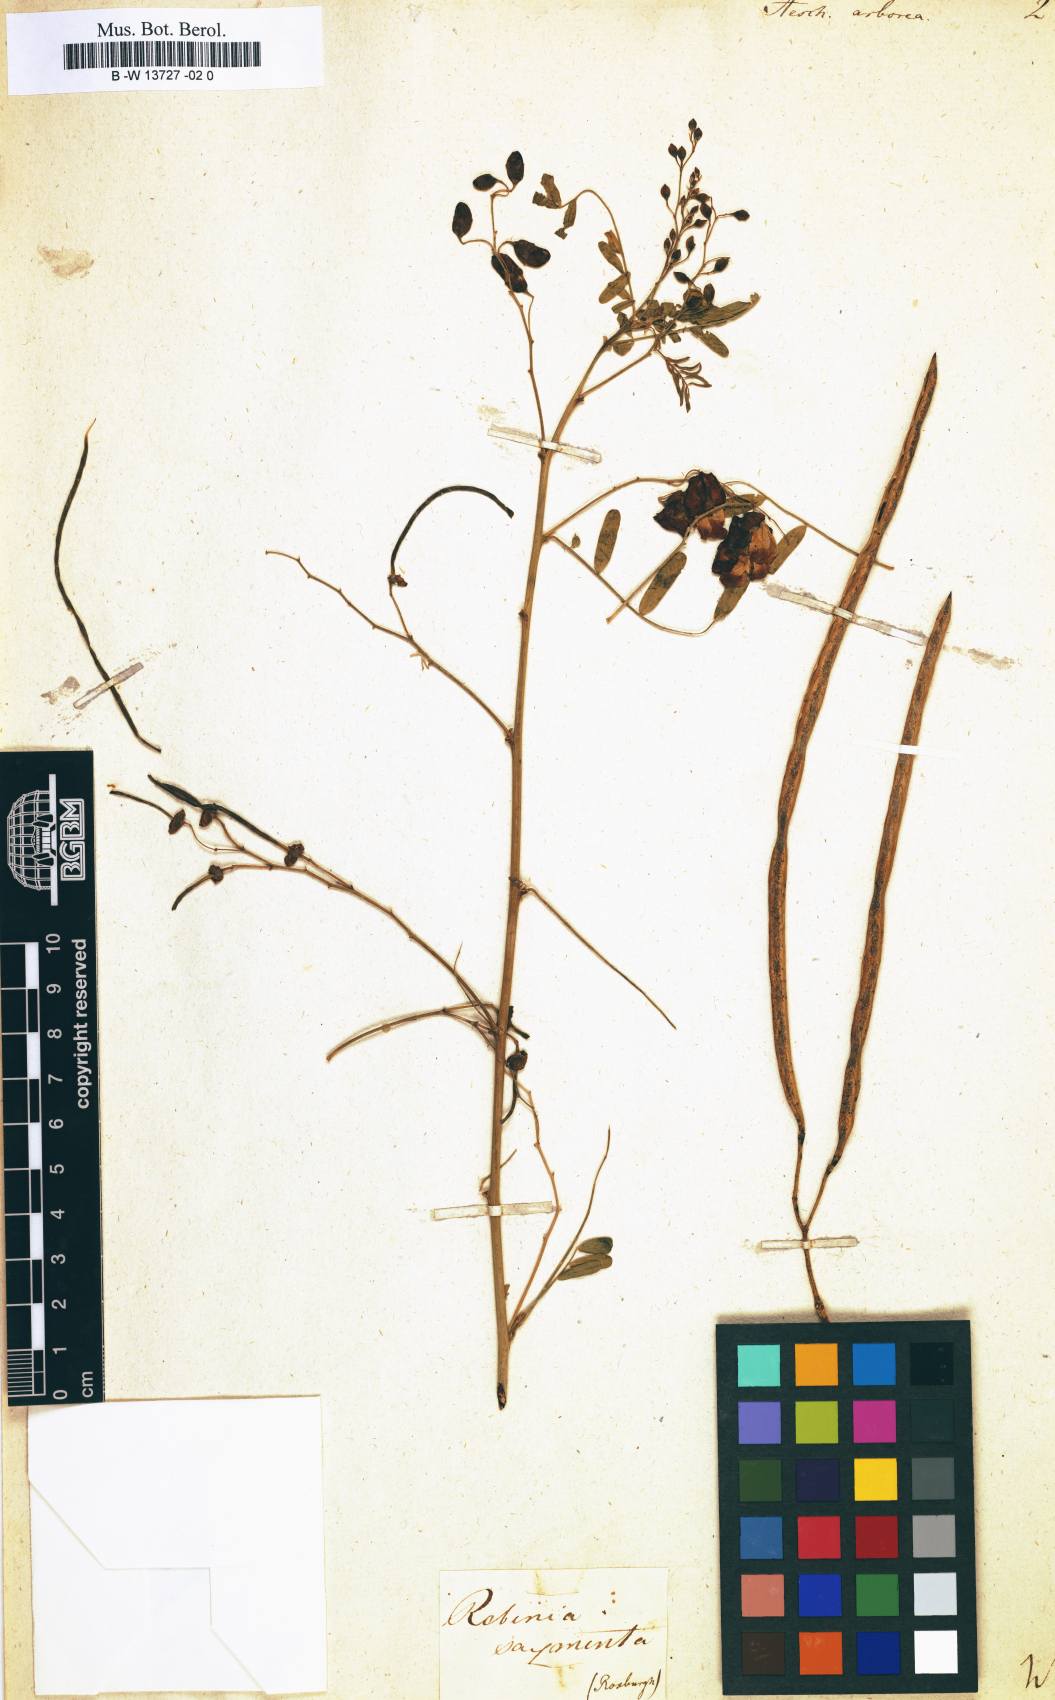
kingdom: Plantae
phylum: Tracheophyta
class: Magnoliopsida
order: Fabales
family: Fabaceae
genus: Grona
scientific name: Grona ramosissima
